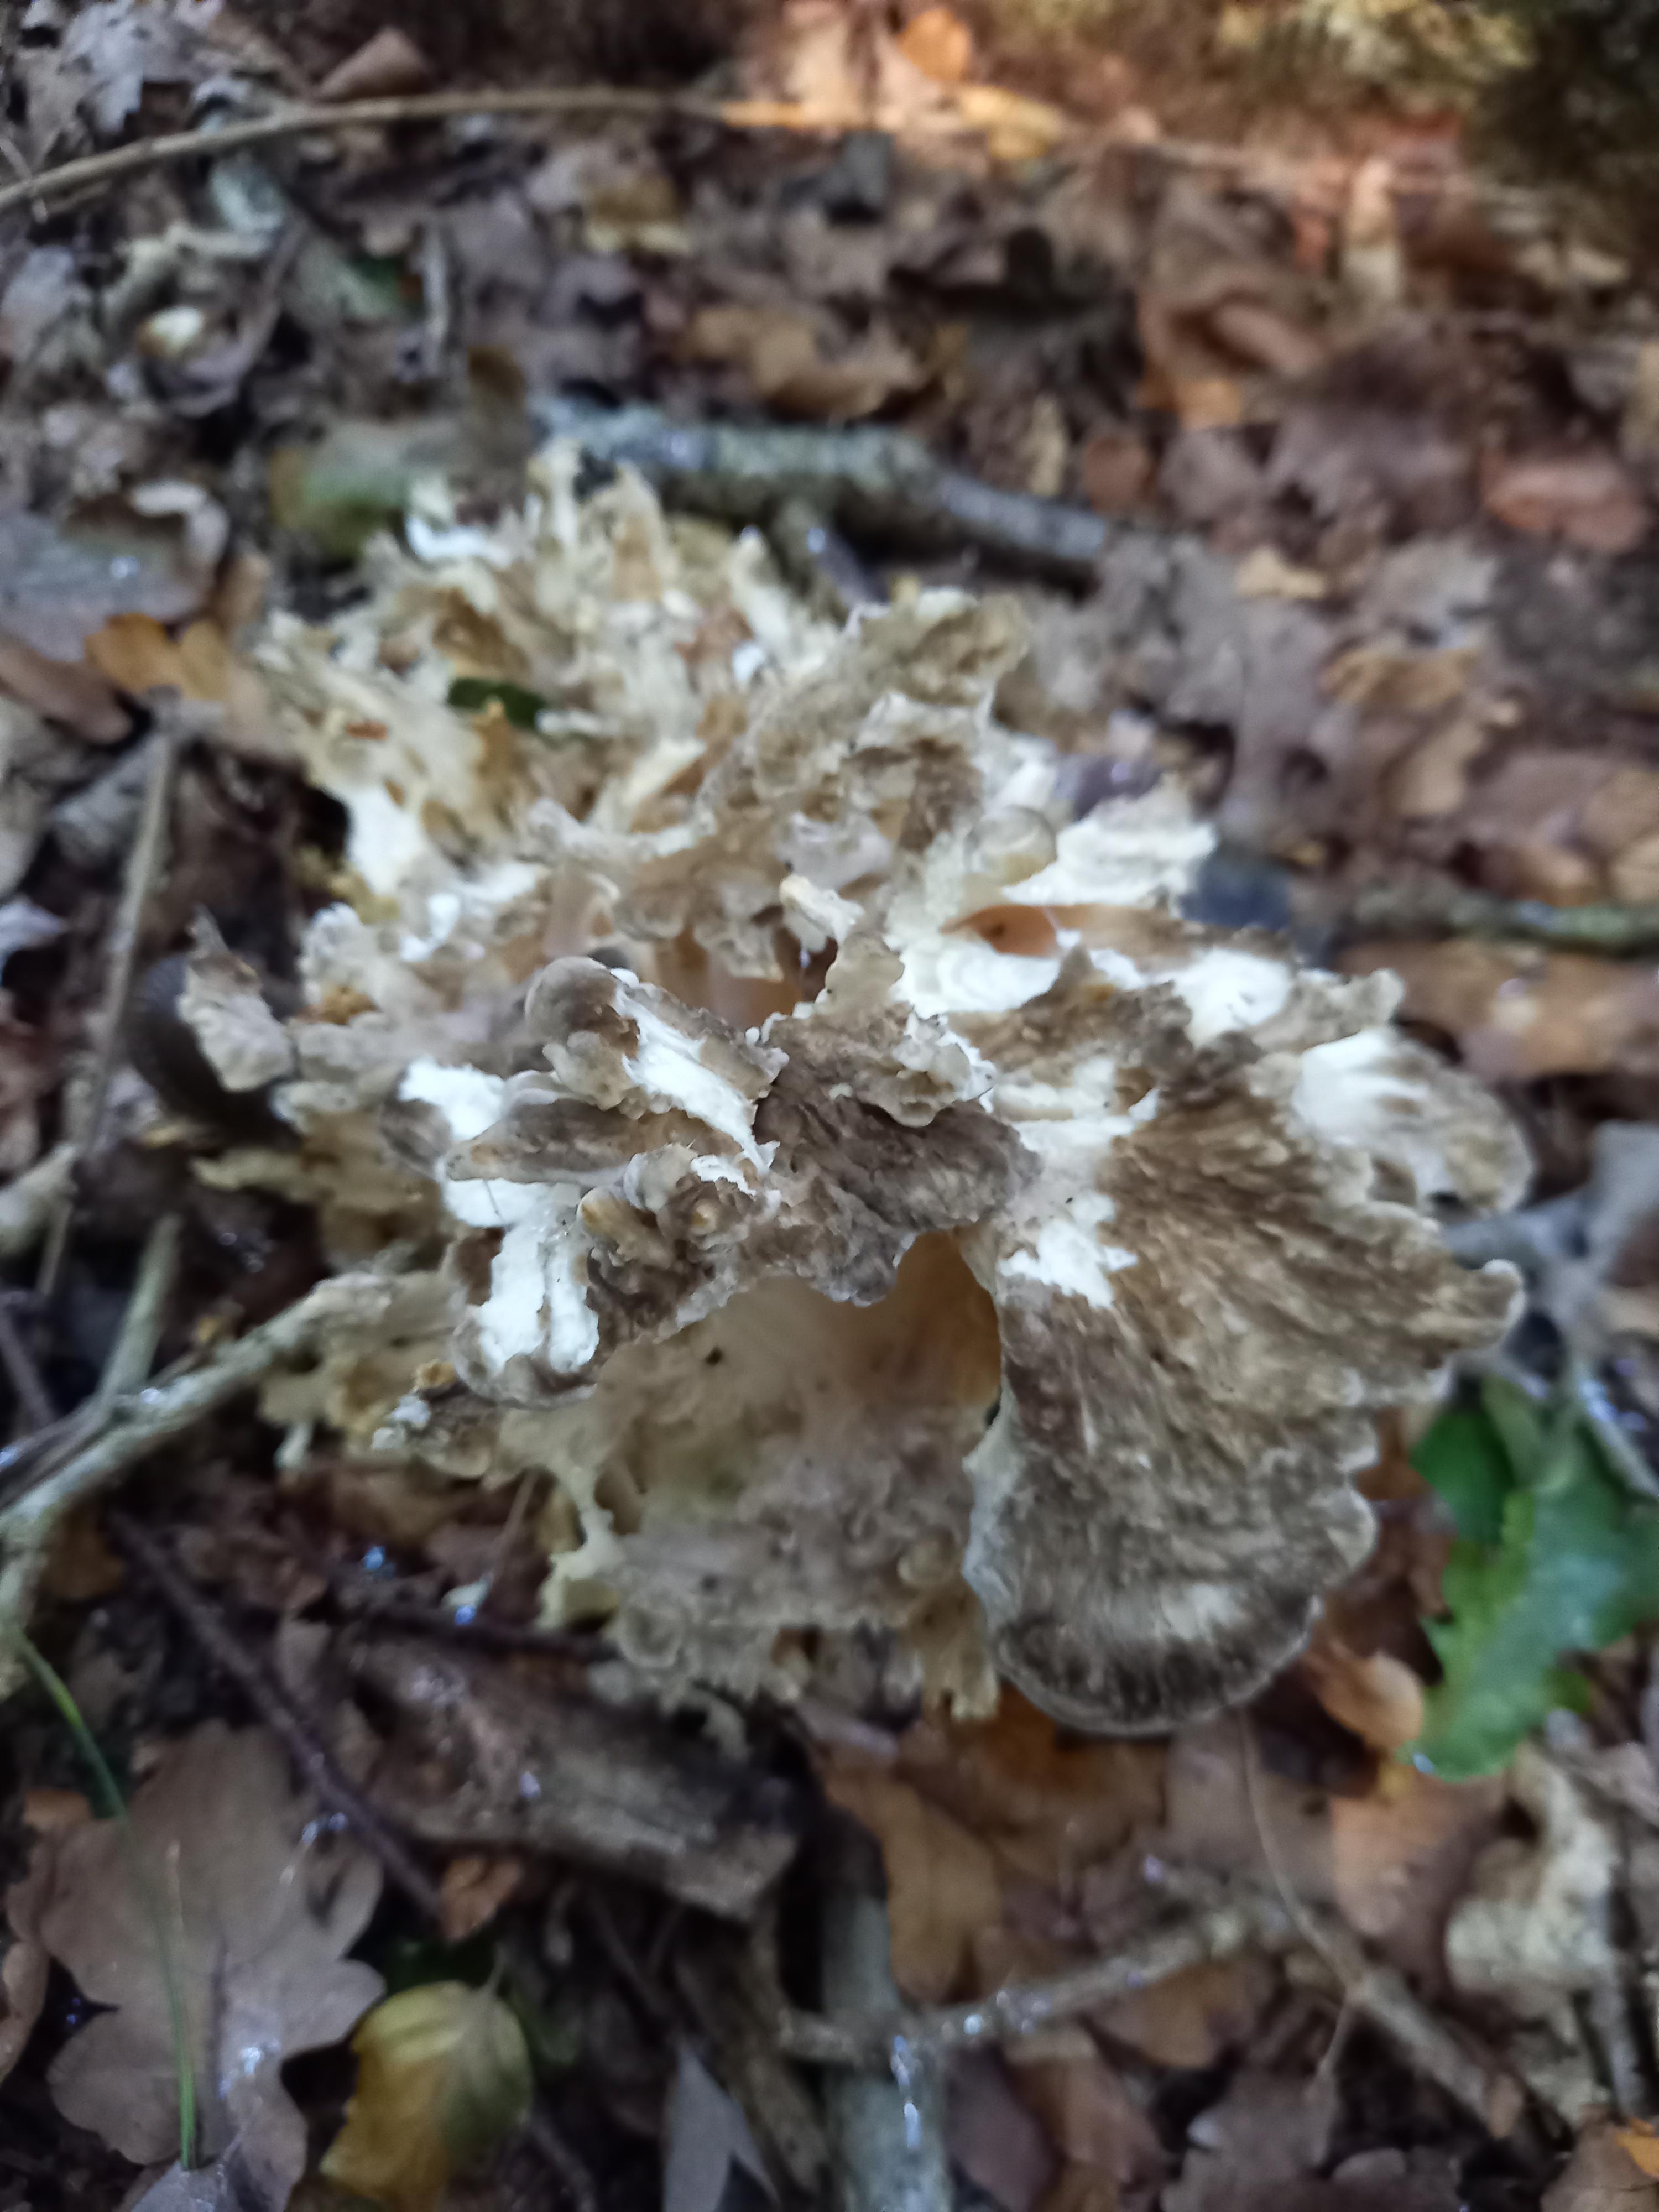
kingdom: Fungi
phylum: Basidiomycota
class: Agaricomycetes
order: Polyporales
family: Grifolaceae
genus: Grifola
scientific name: Grifola frondosa
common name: tueporesvamp
